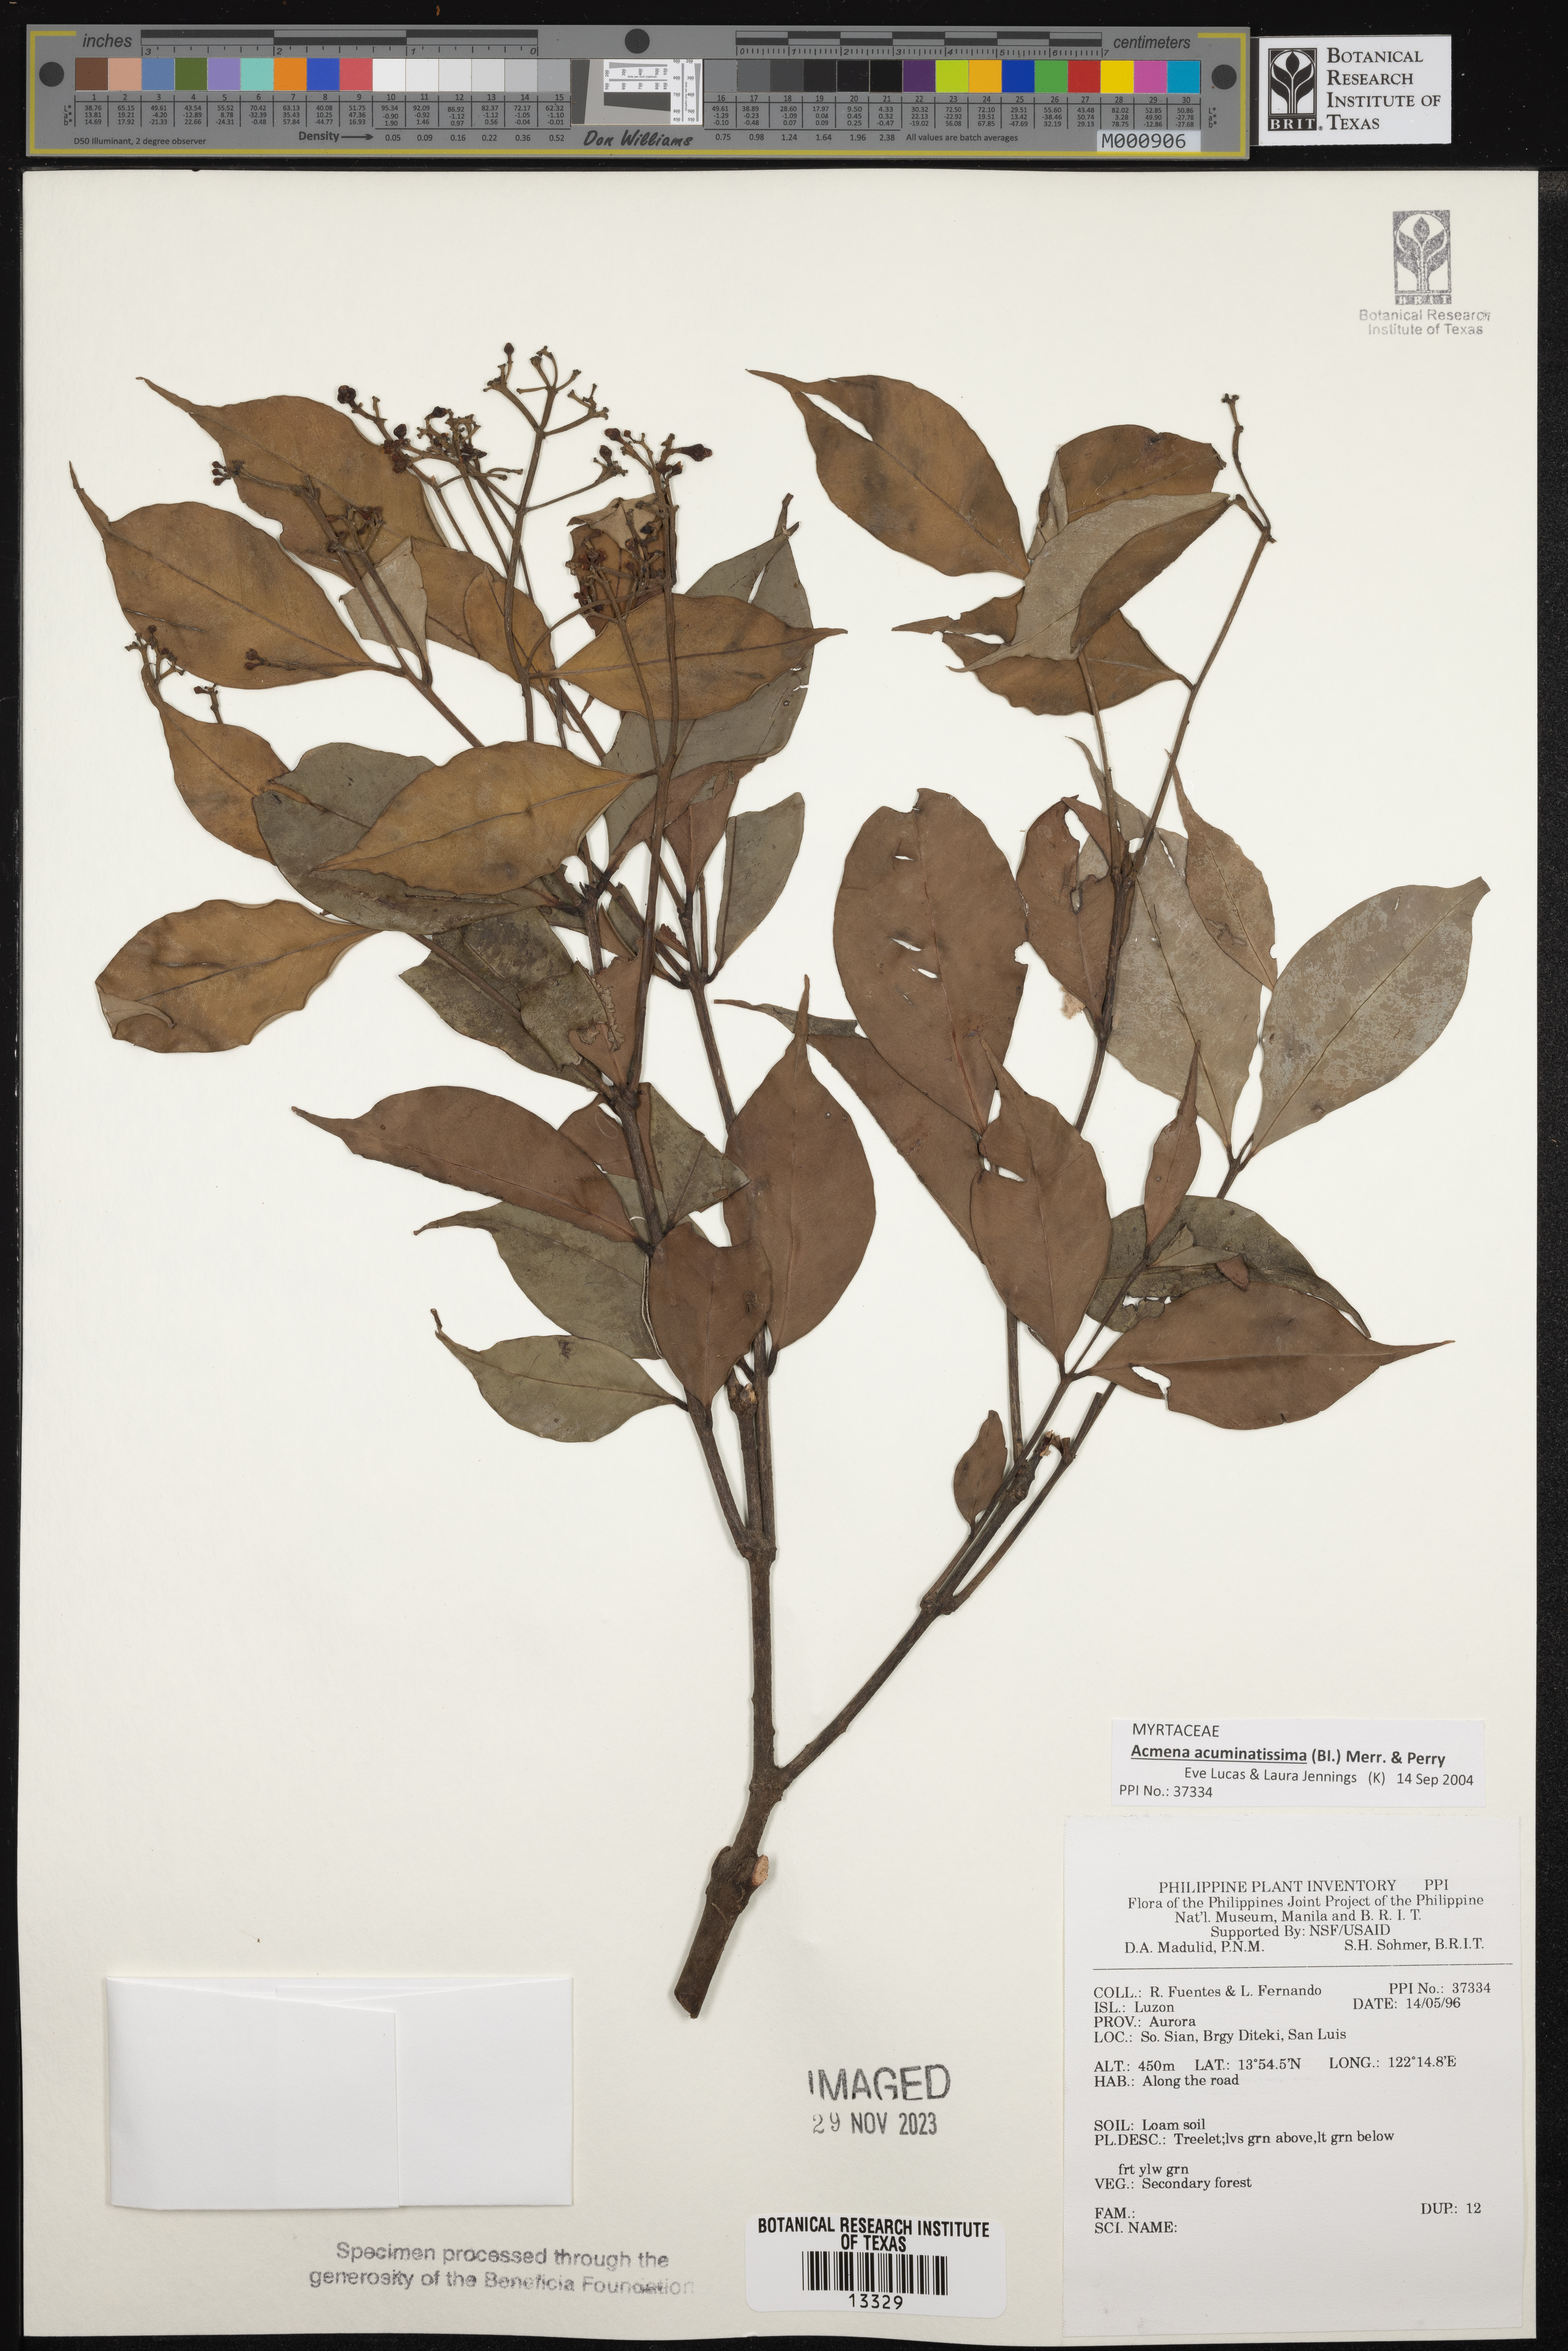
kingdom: Plantae
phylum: Tracheophyta
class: Magnoliopsida
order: Myrtales
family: Myrtaceae
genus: Syzygium
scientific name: Syzygium
